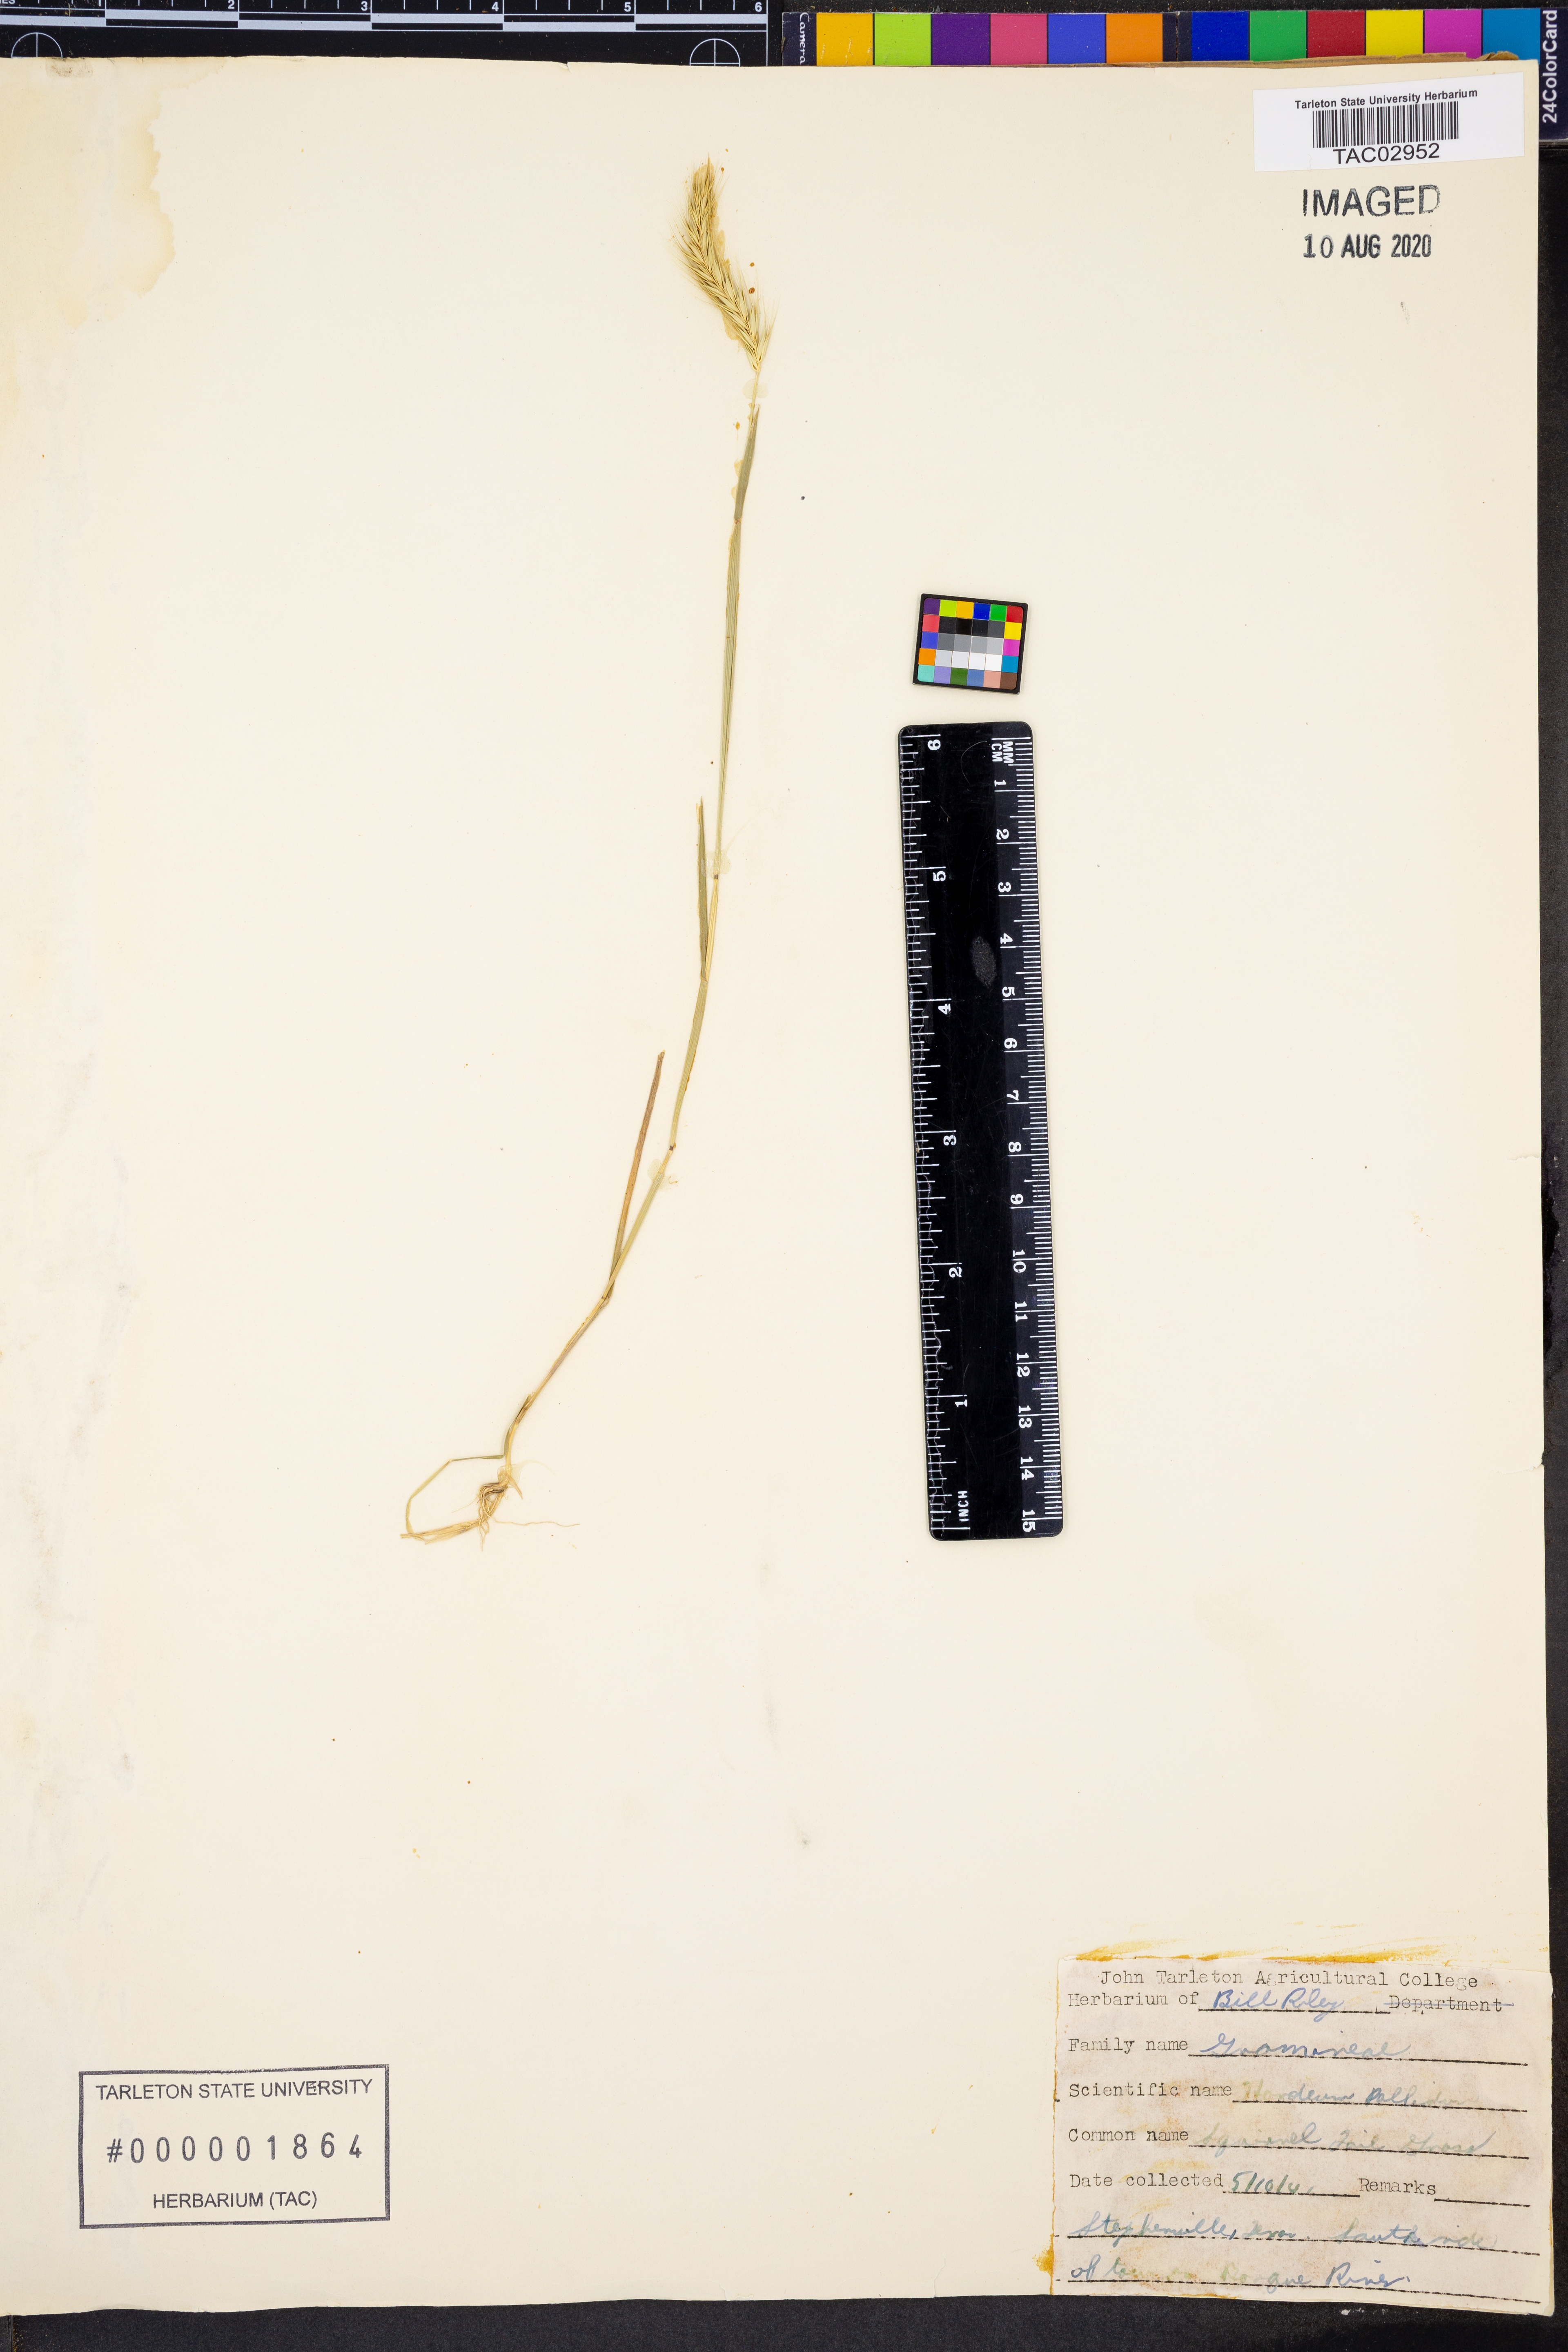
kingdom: Plantae
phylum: Tracheophyta
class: Liliopsida
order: Poales
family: Poaceae
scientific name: Poaceae
